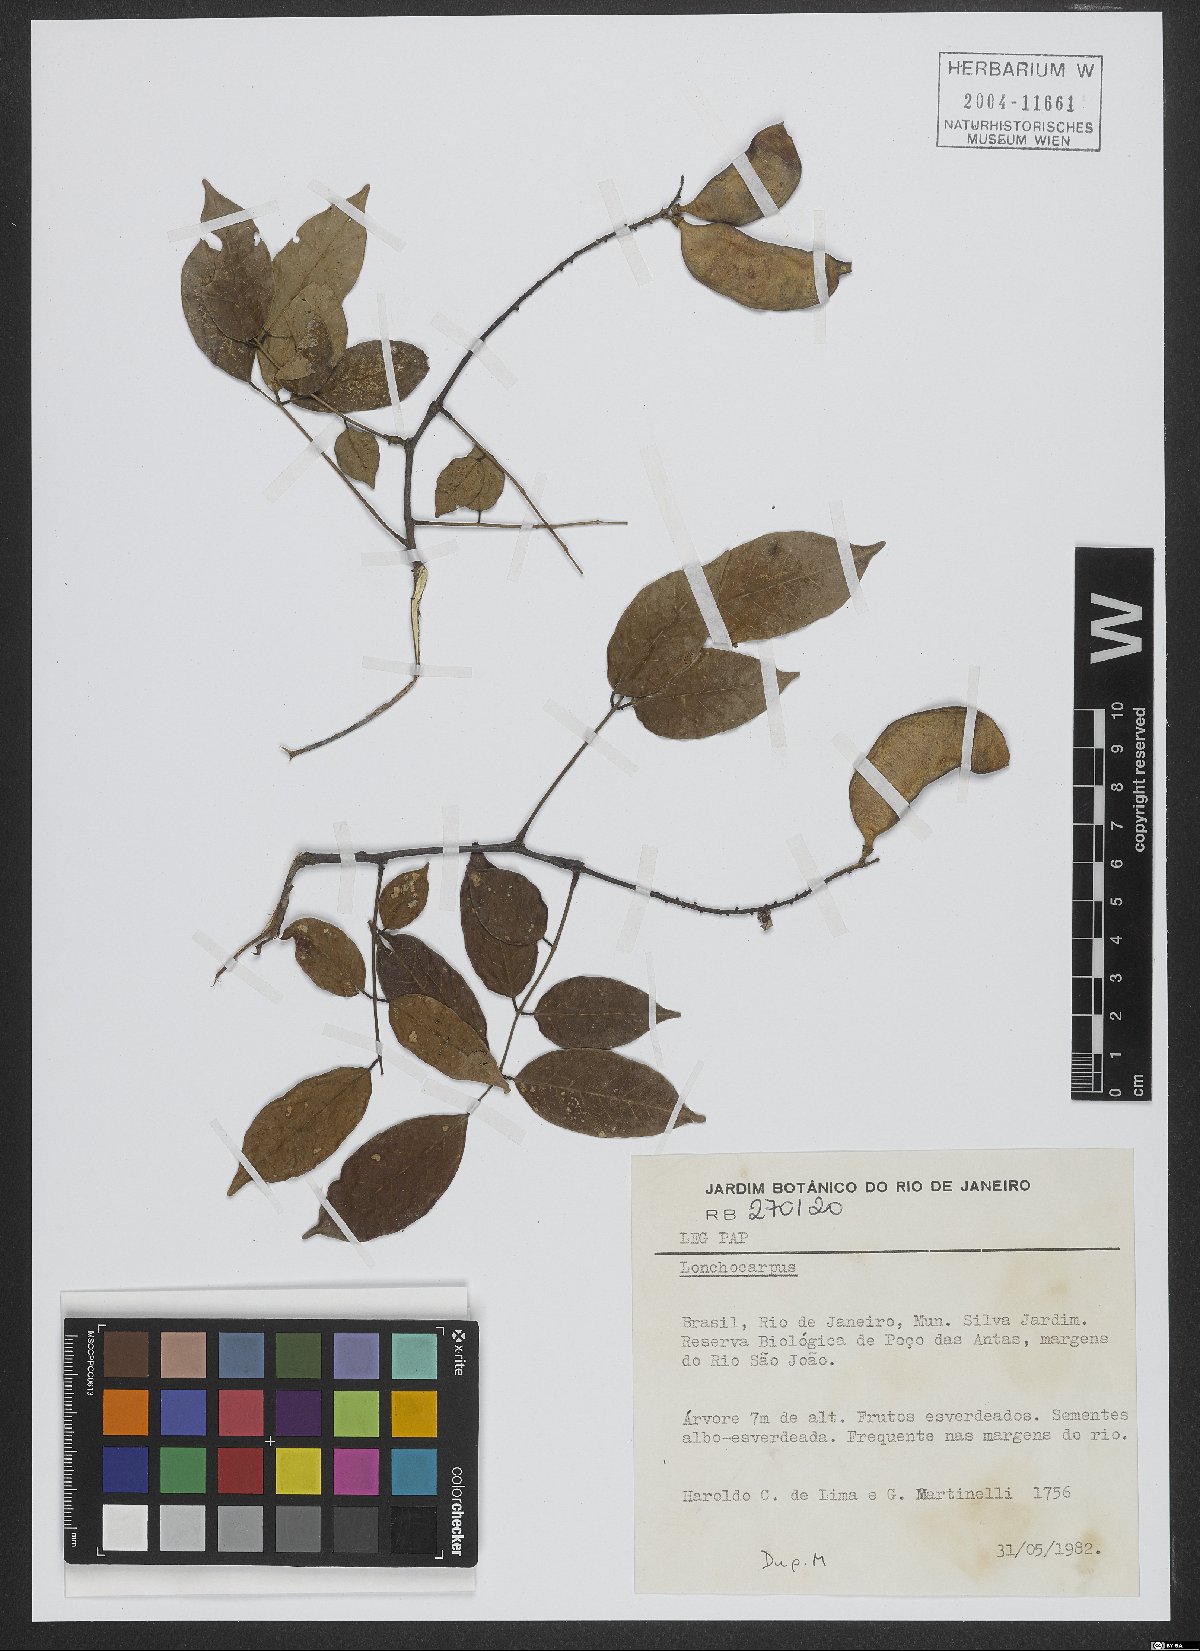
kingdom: Plantae
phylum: Tracheophyta
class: Magnoliopsida
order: Fabales
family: Fabaceae
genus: Lonchocarpus
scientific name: Lonchocarpus
